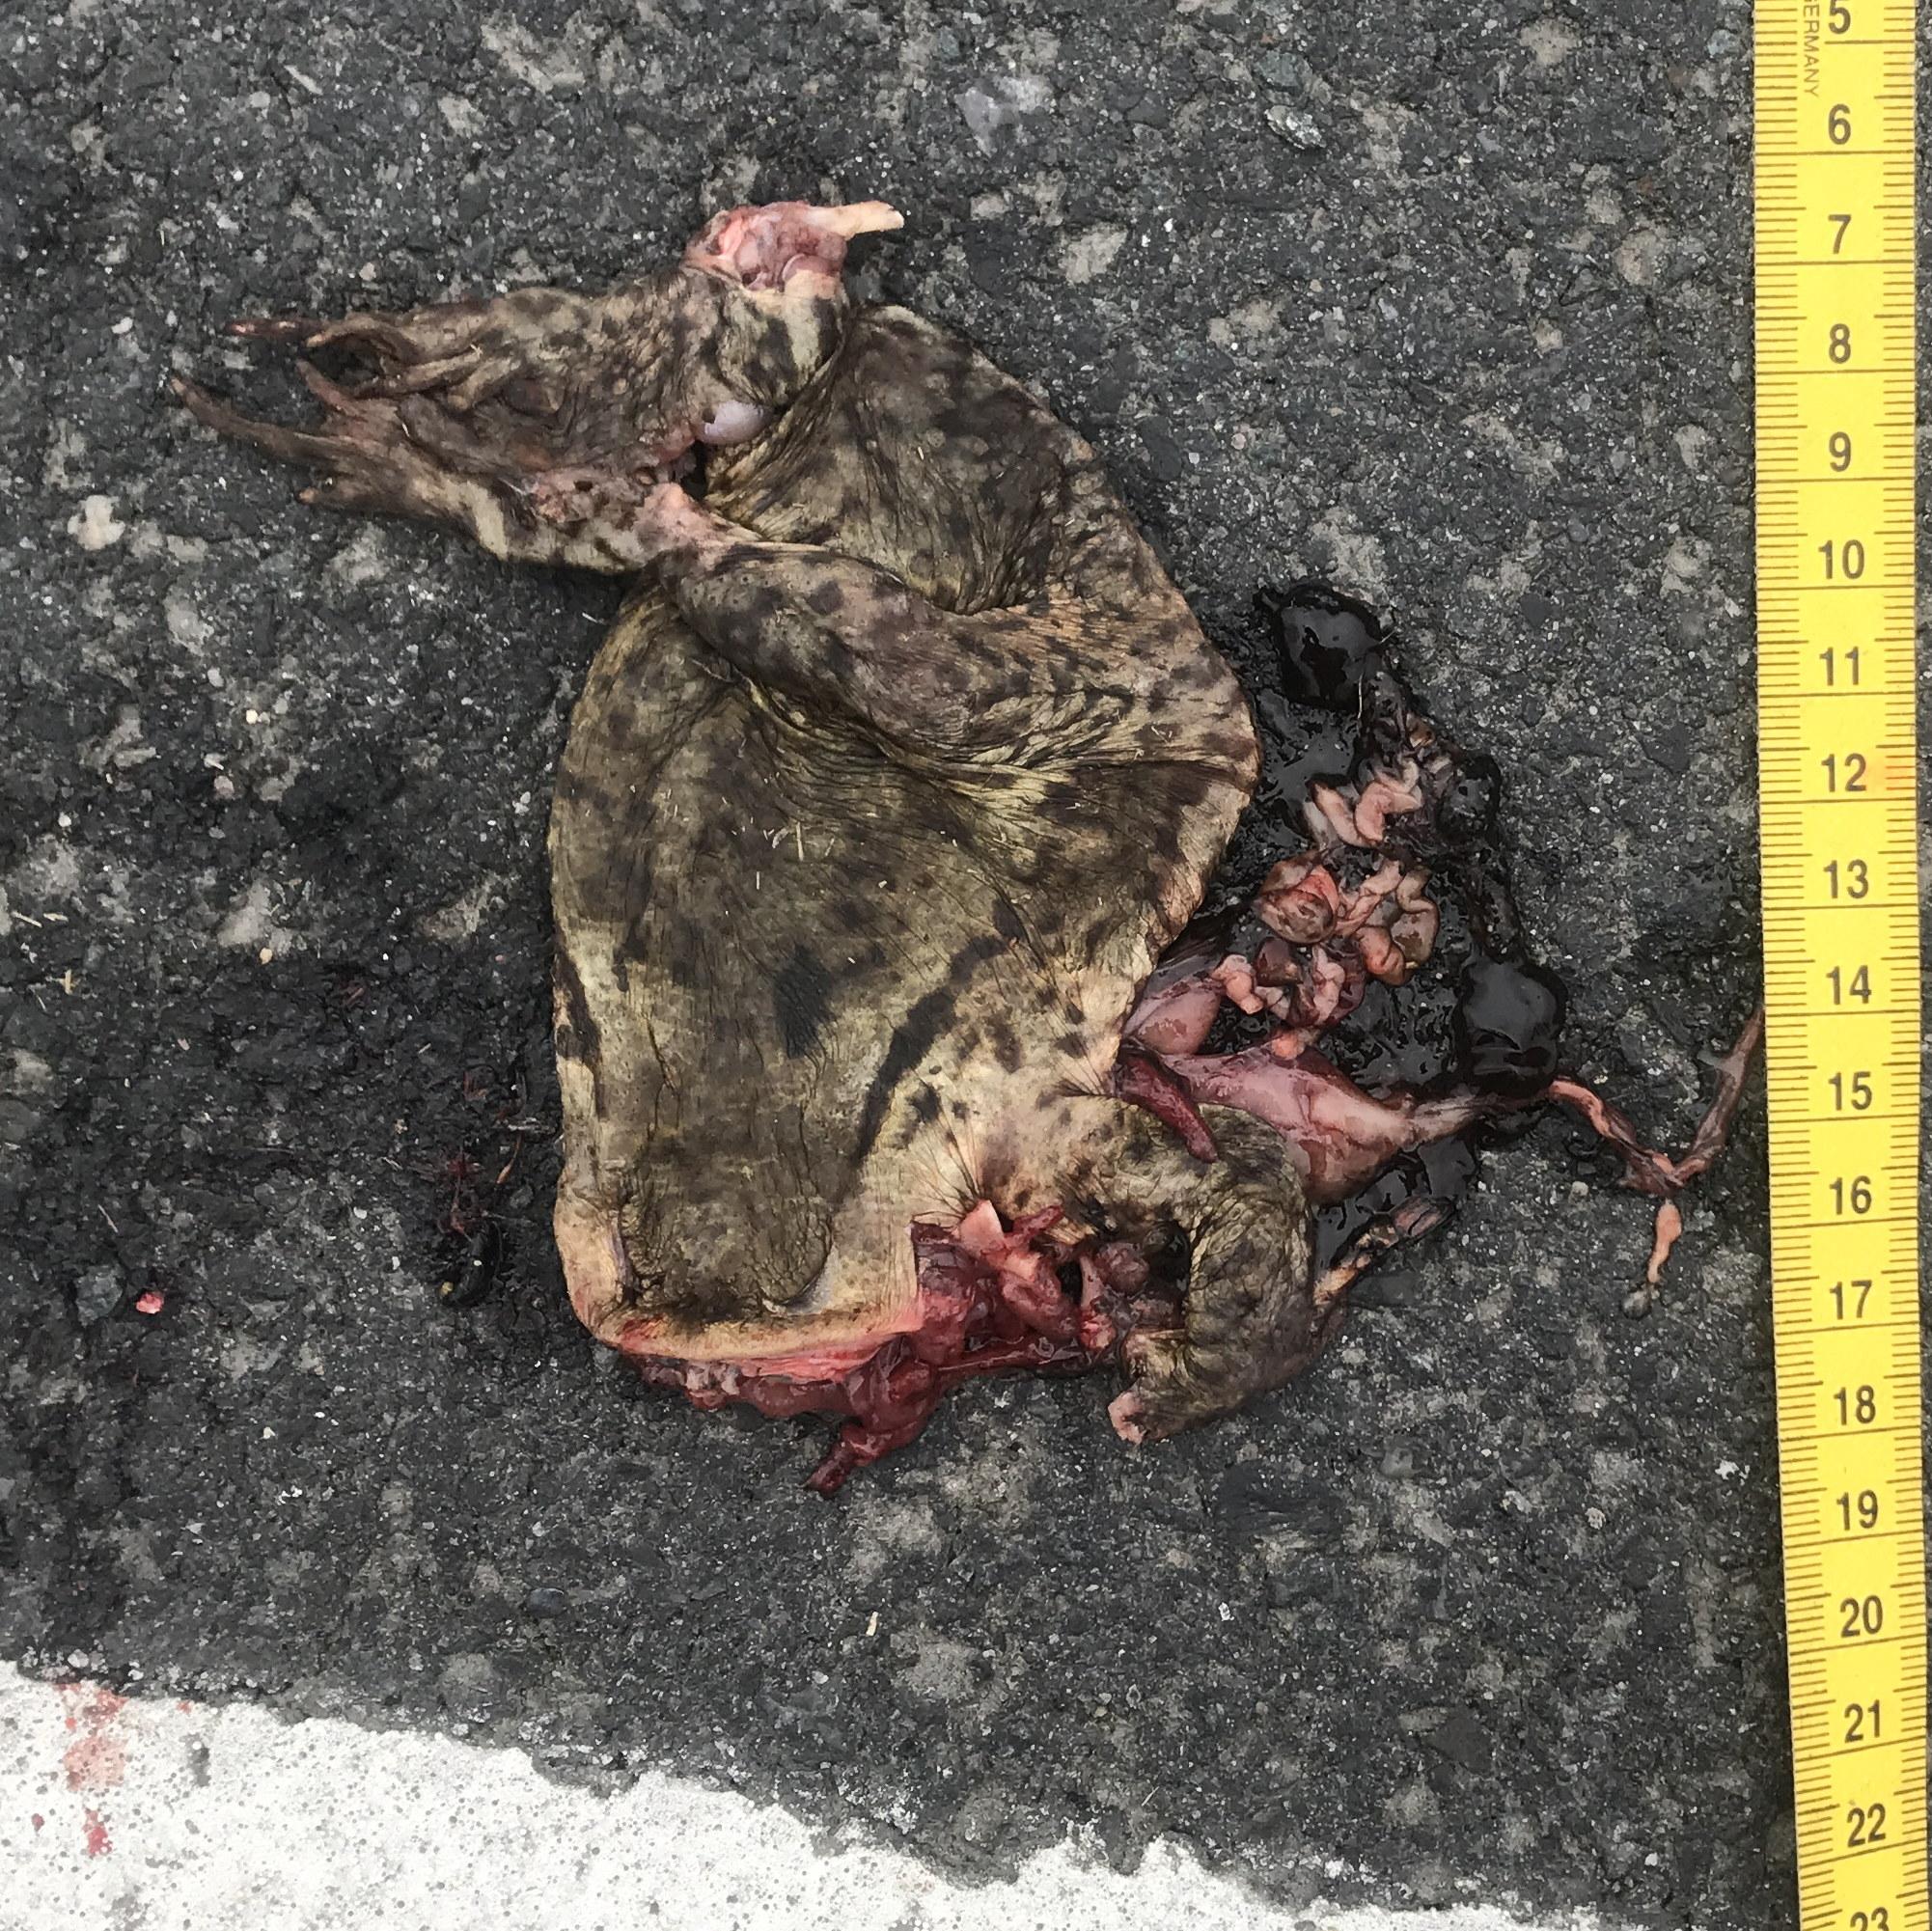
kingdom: Animalia
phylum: Chordata
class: Amphibia
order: Anura
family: Bufonidae
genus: Bufo
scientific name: Bufo bufo
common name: Common toad
